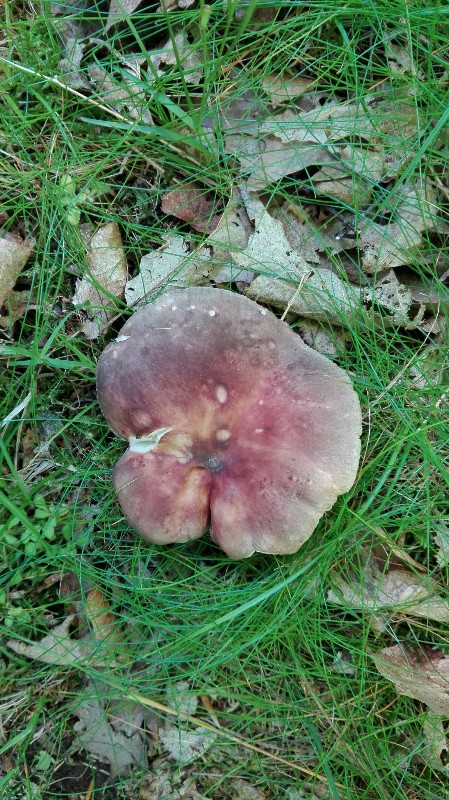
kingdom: Fungi
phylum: Basidiomycota
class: Agaricomycetes
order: Russulales
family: Russulaceae
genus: Russula
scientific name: Russula vesca
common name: spiselig skørhat
